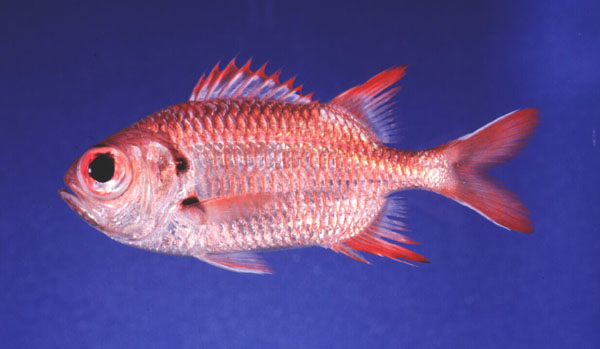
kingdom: Animalia
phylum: Chordata
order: Beryciformes
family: Holocentridae
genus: Myripristis
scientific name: Myripristis murdjan
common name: Big-eye soldierfish
